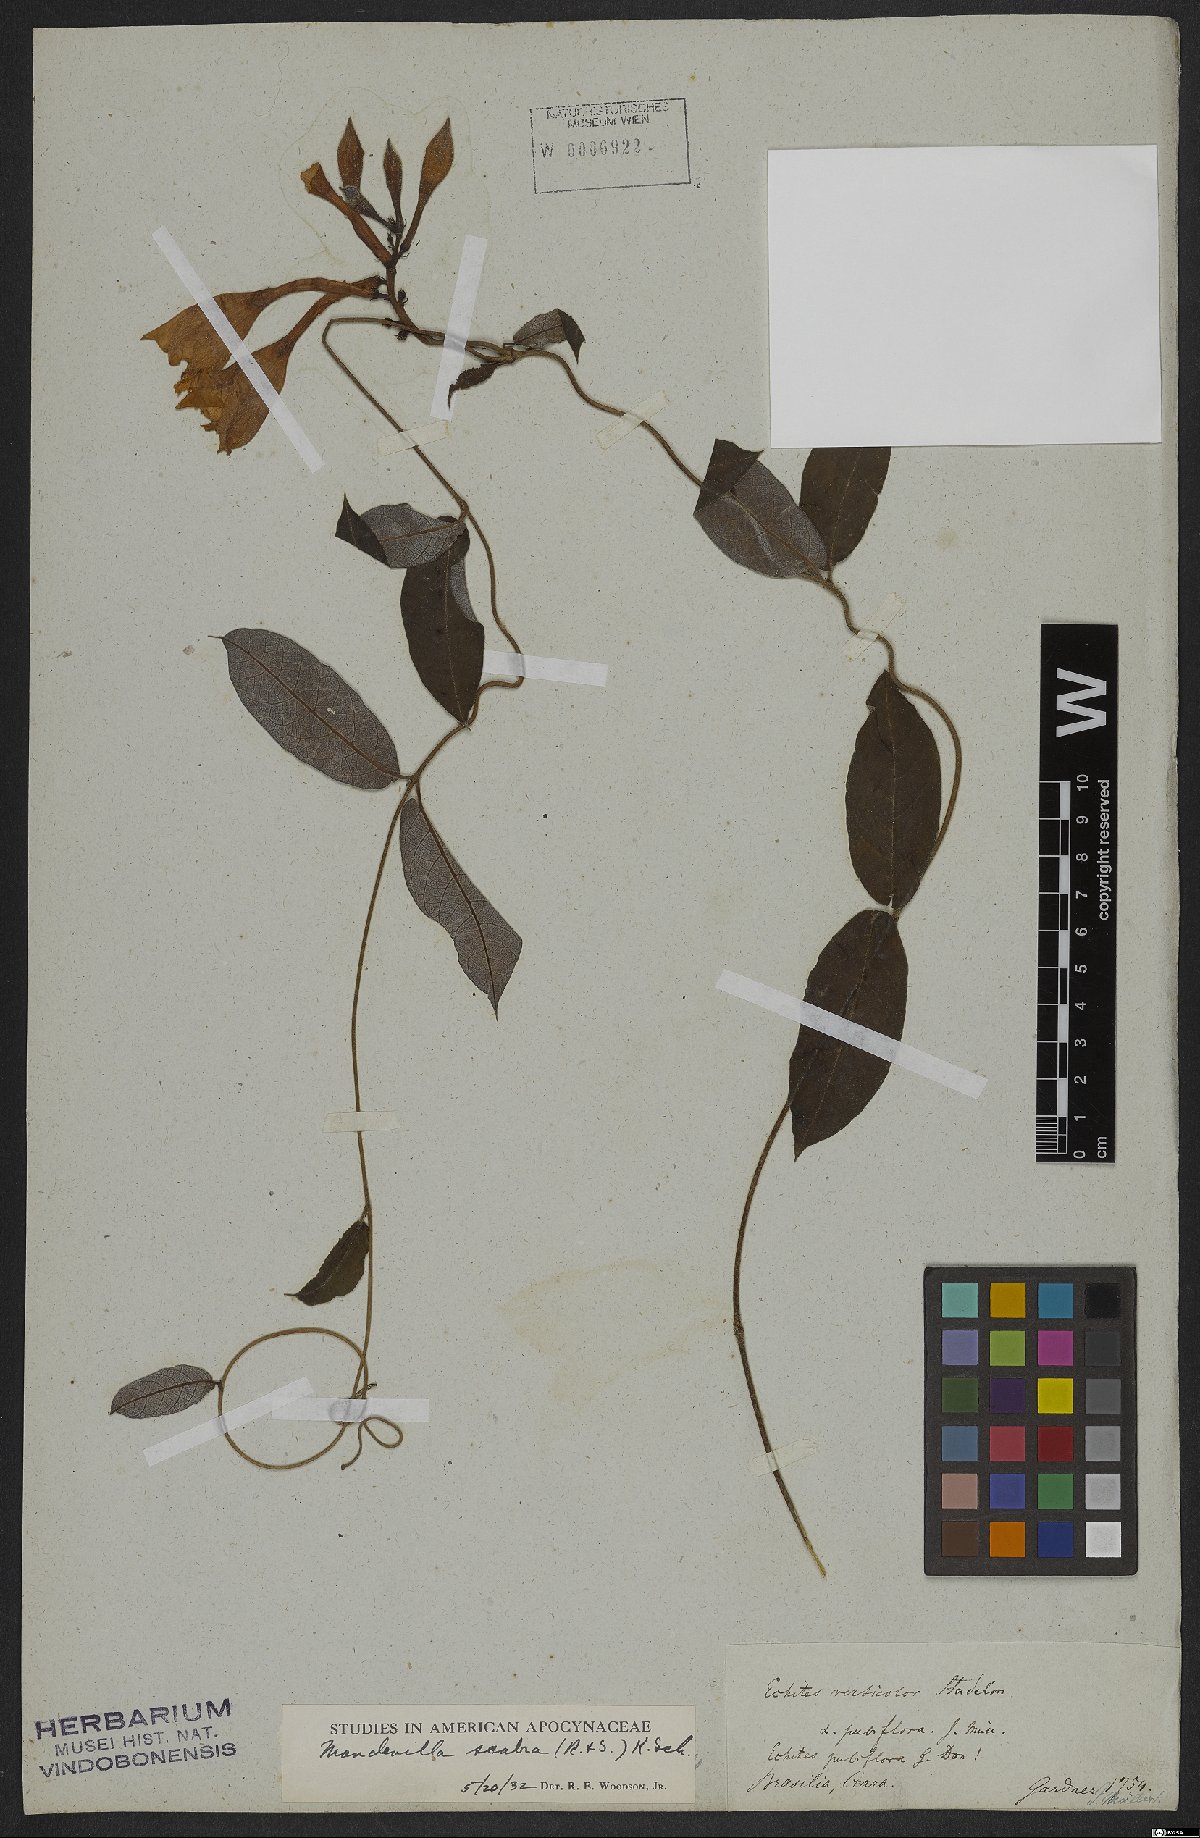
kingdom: Plantae
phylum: Tracheophyta
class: Magnoliopsida
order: Gentianales
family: Apocynaceae
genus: Mandevilla
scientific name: Mandevilla scabra
